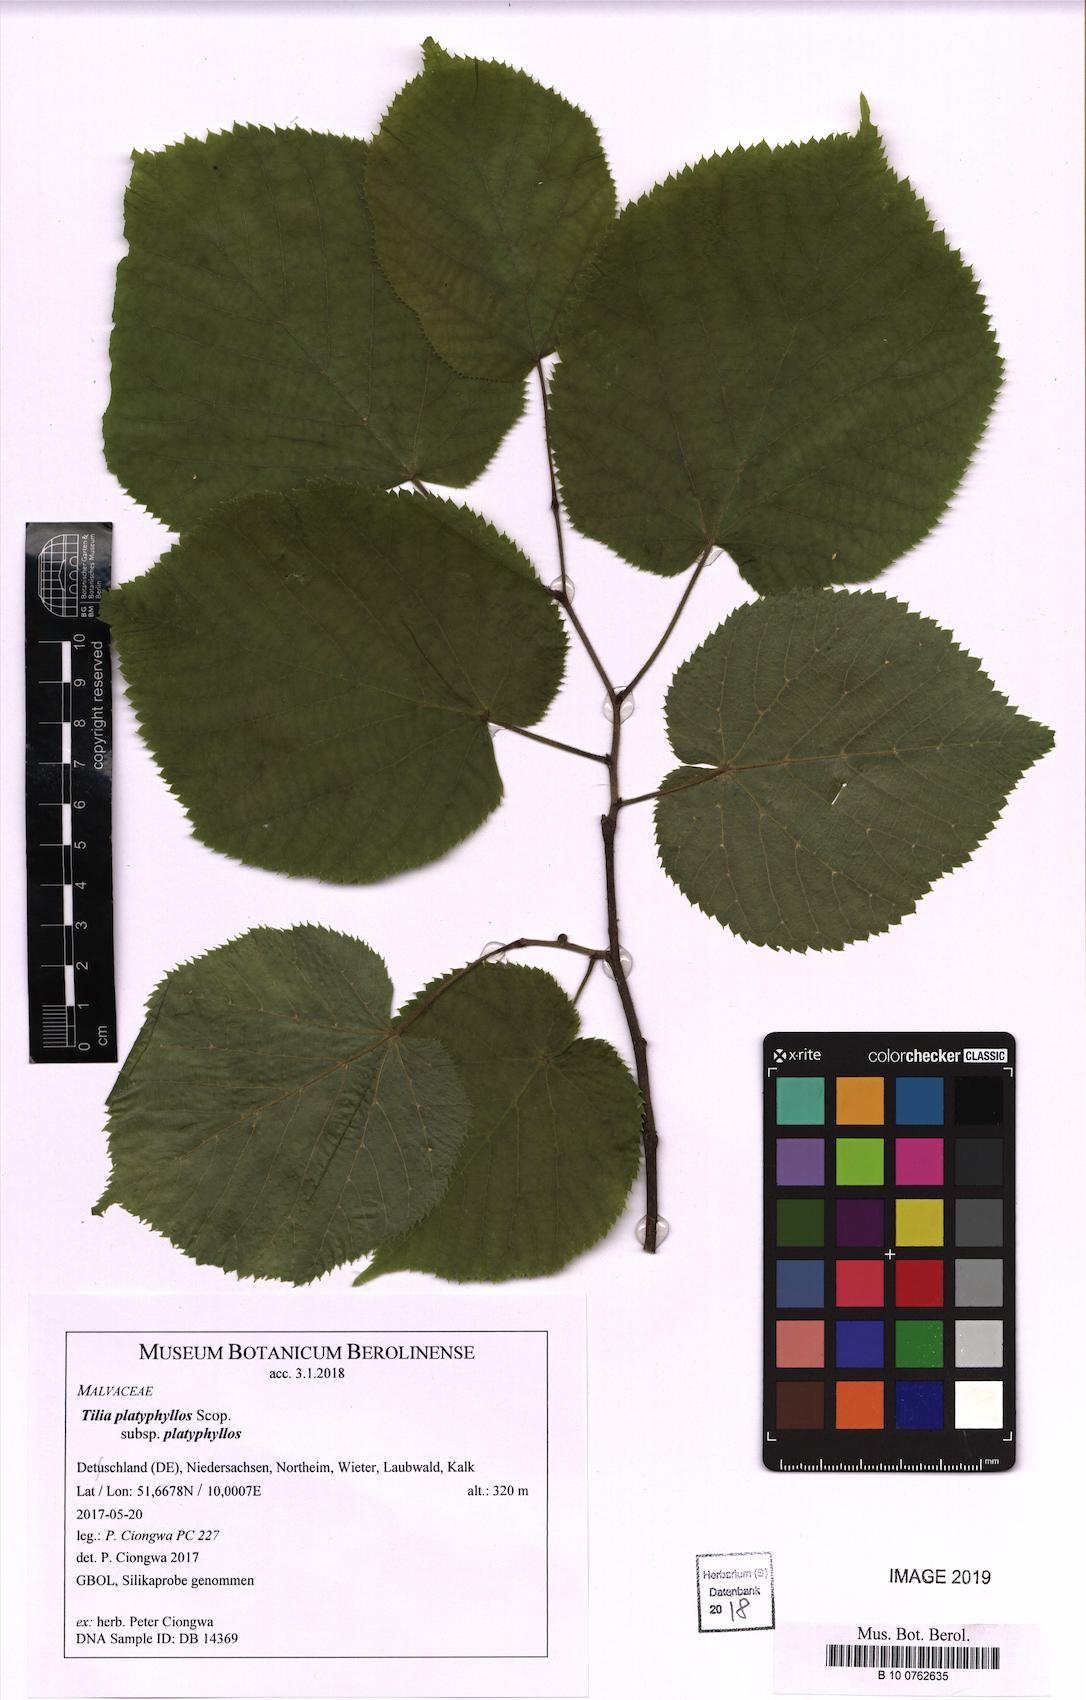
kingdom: Plantae
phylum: Tracheophyta
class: Magnoliopsida
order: Malvales
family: Malvaceae
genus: Tilia
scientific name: Tilia platyphyllos
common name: Large-leaved lime
